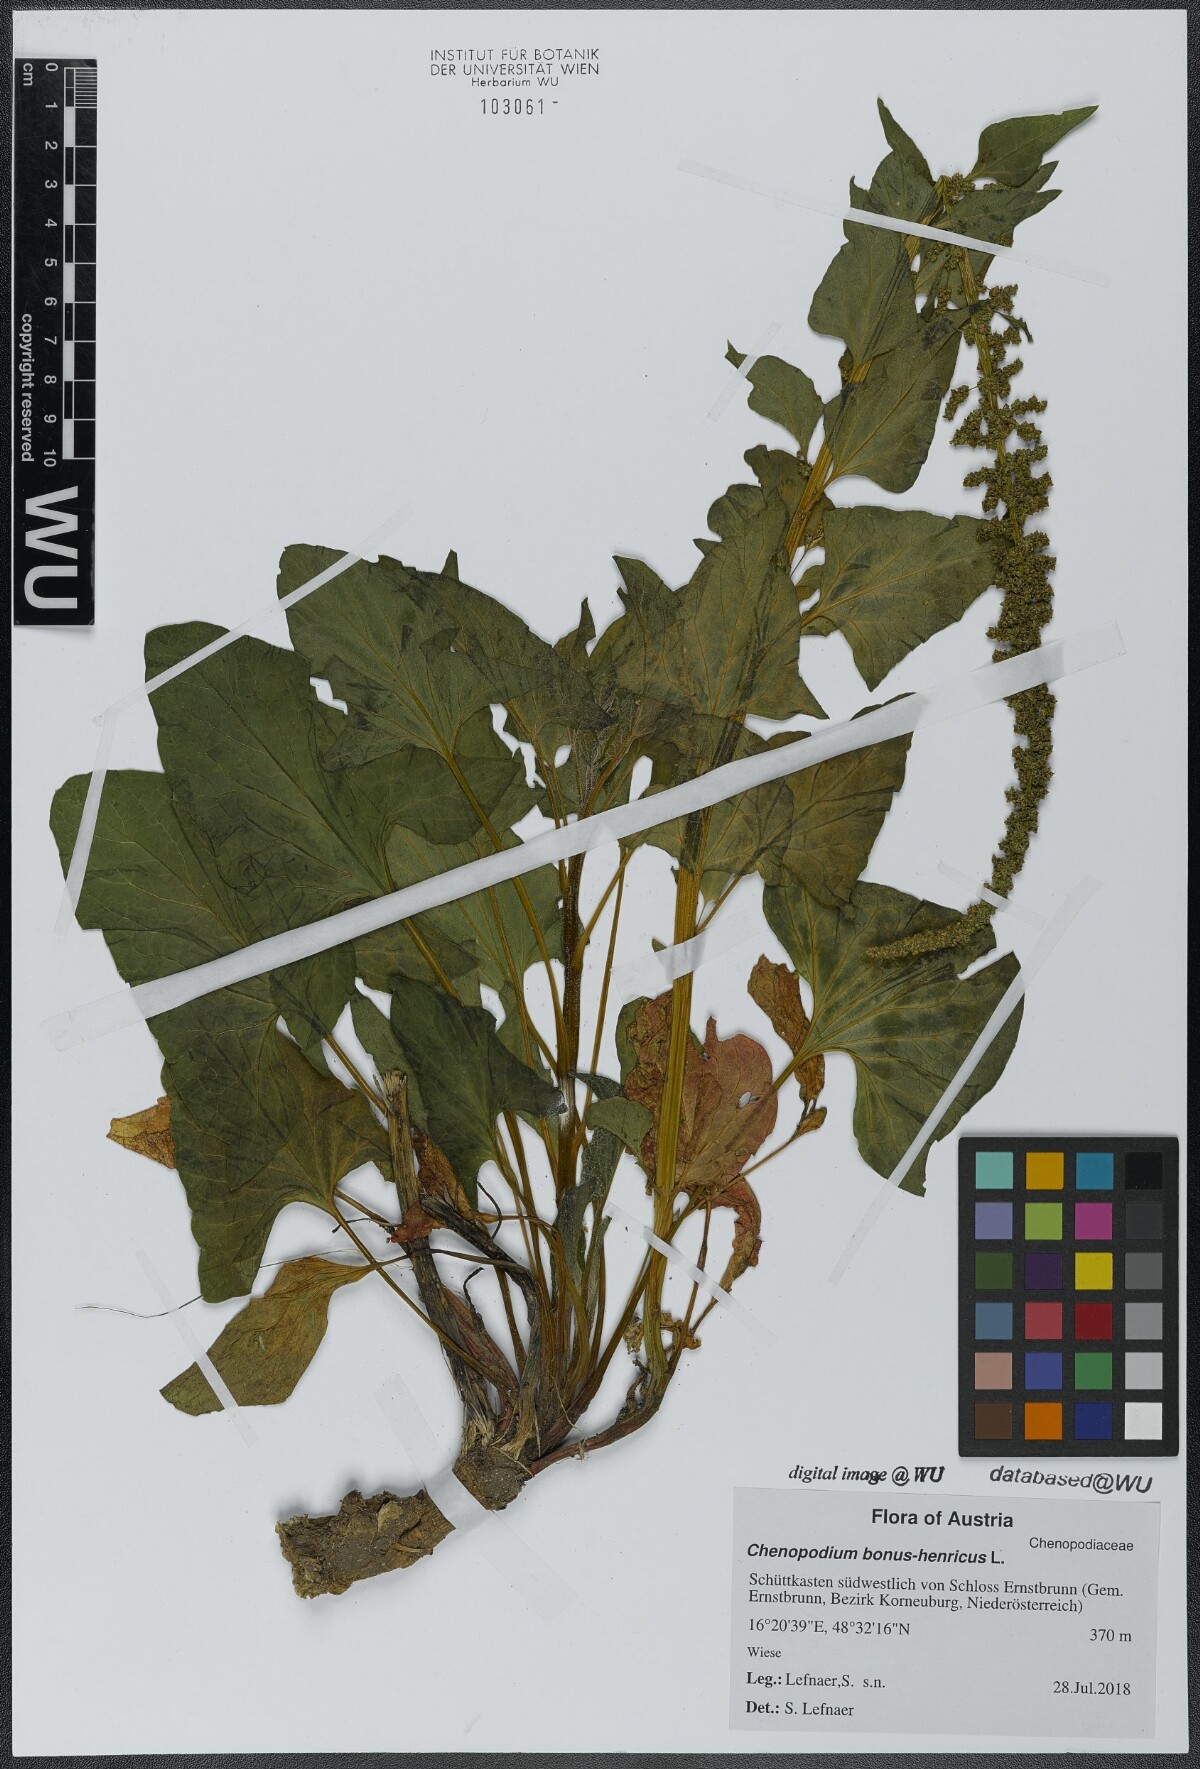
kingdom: Plantae
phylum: Tracheophyta
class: Magnoliopsida
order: Caryophyllales
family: Amaranthaceae
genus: Blitum
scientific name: Blitum bonus-henricus
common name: Good king henry
